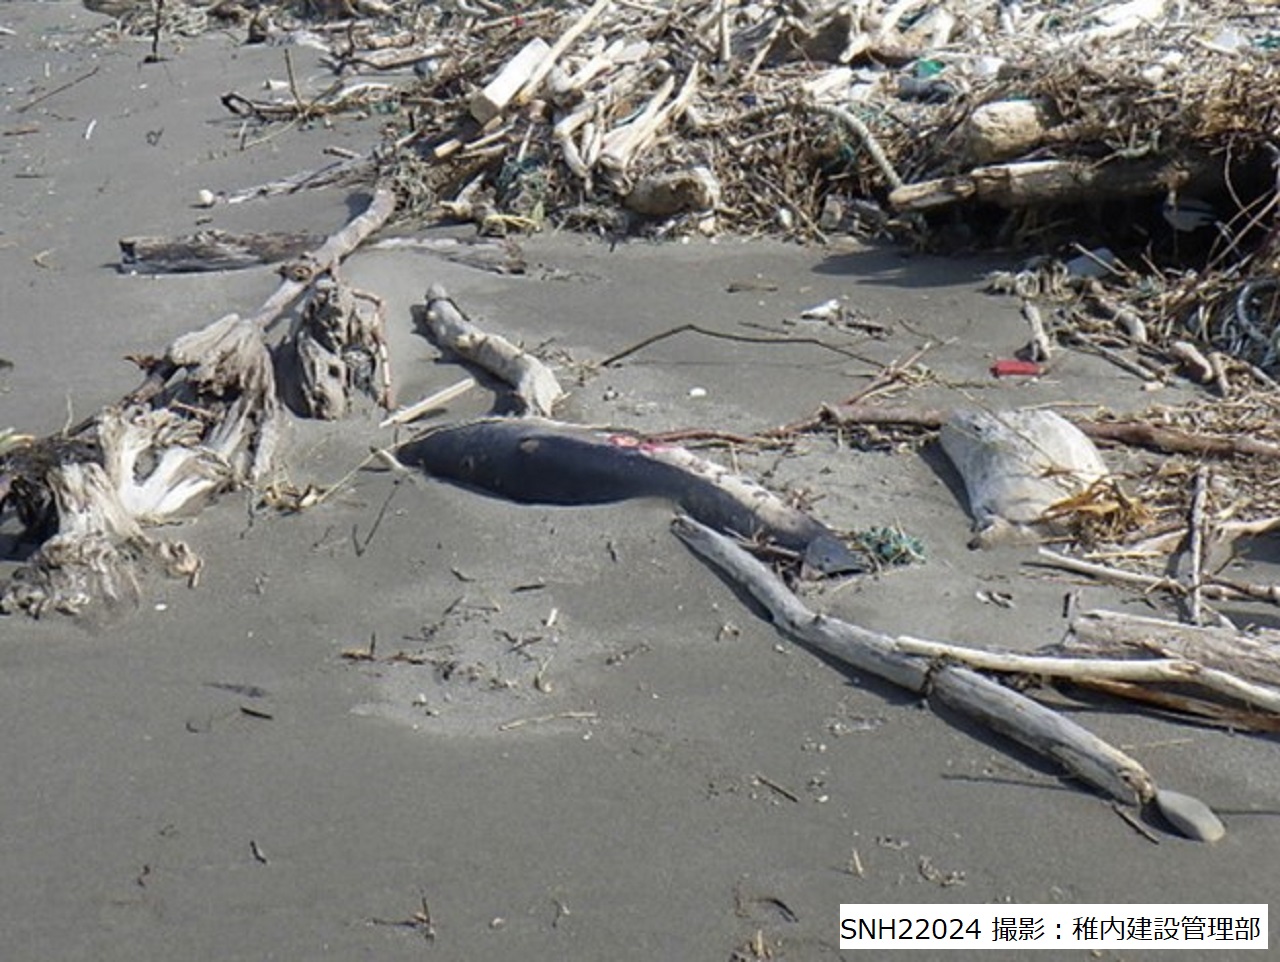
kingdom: Animalia
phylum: Chordata
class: Mammalia
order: Cetacea
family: Phocoenidae
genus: Phocoena
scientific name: Phocoena phocoena
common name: Harbour porpoise
